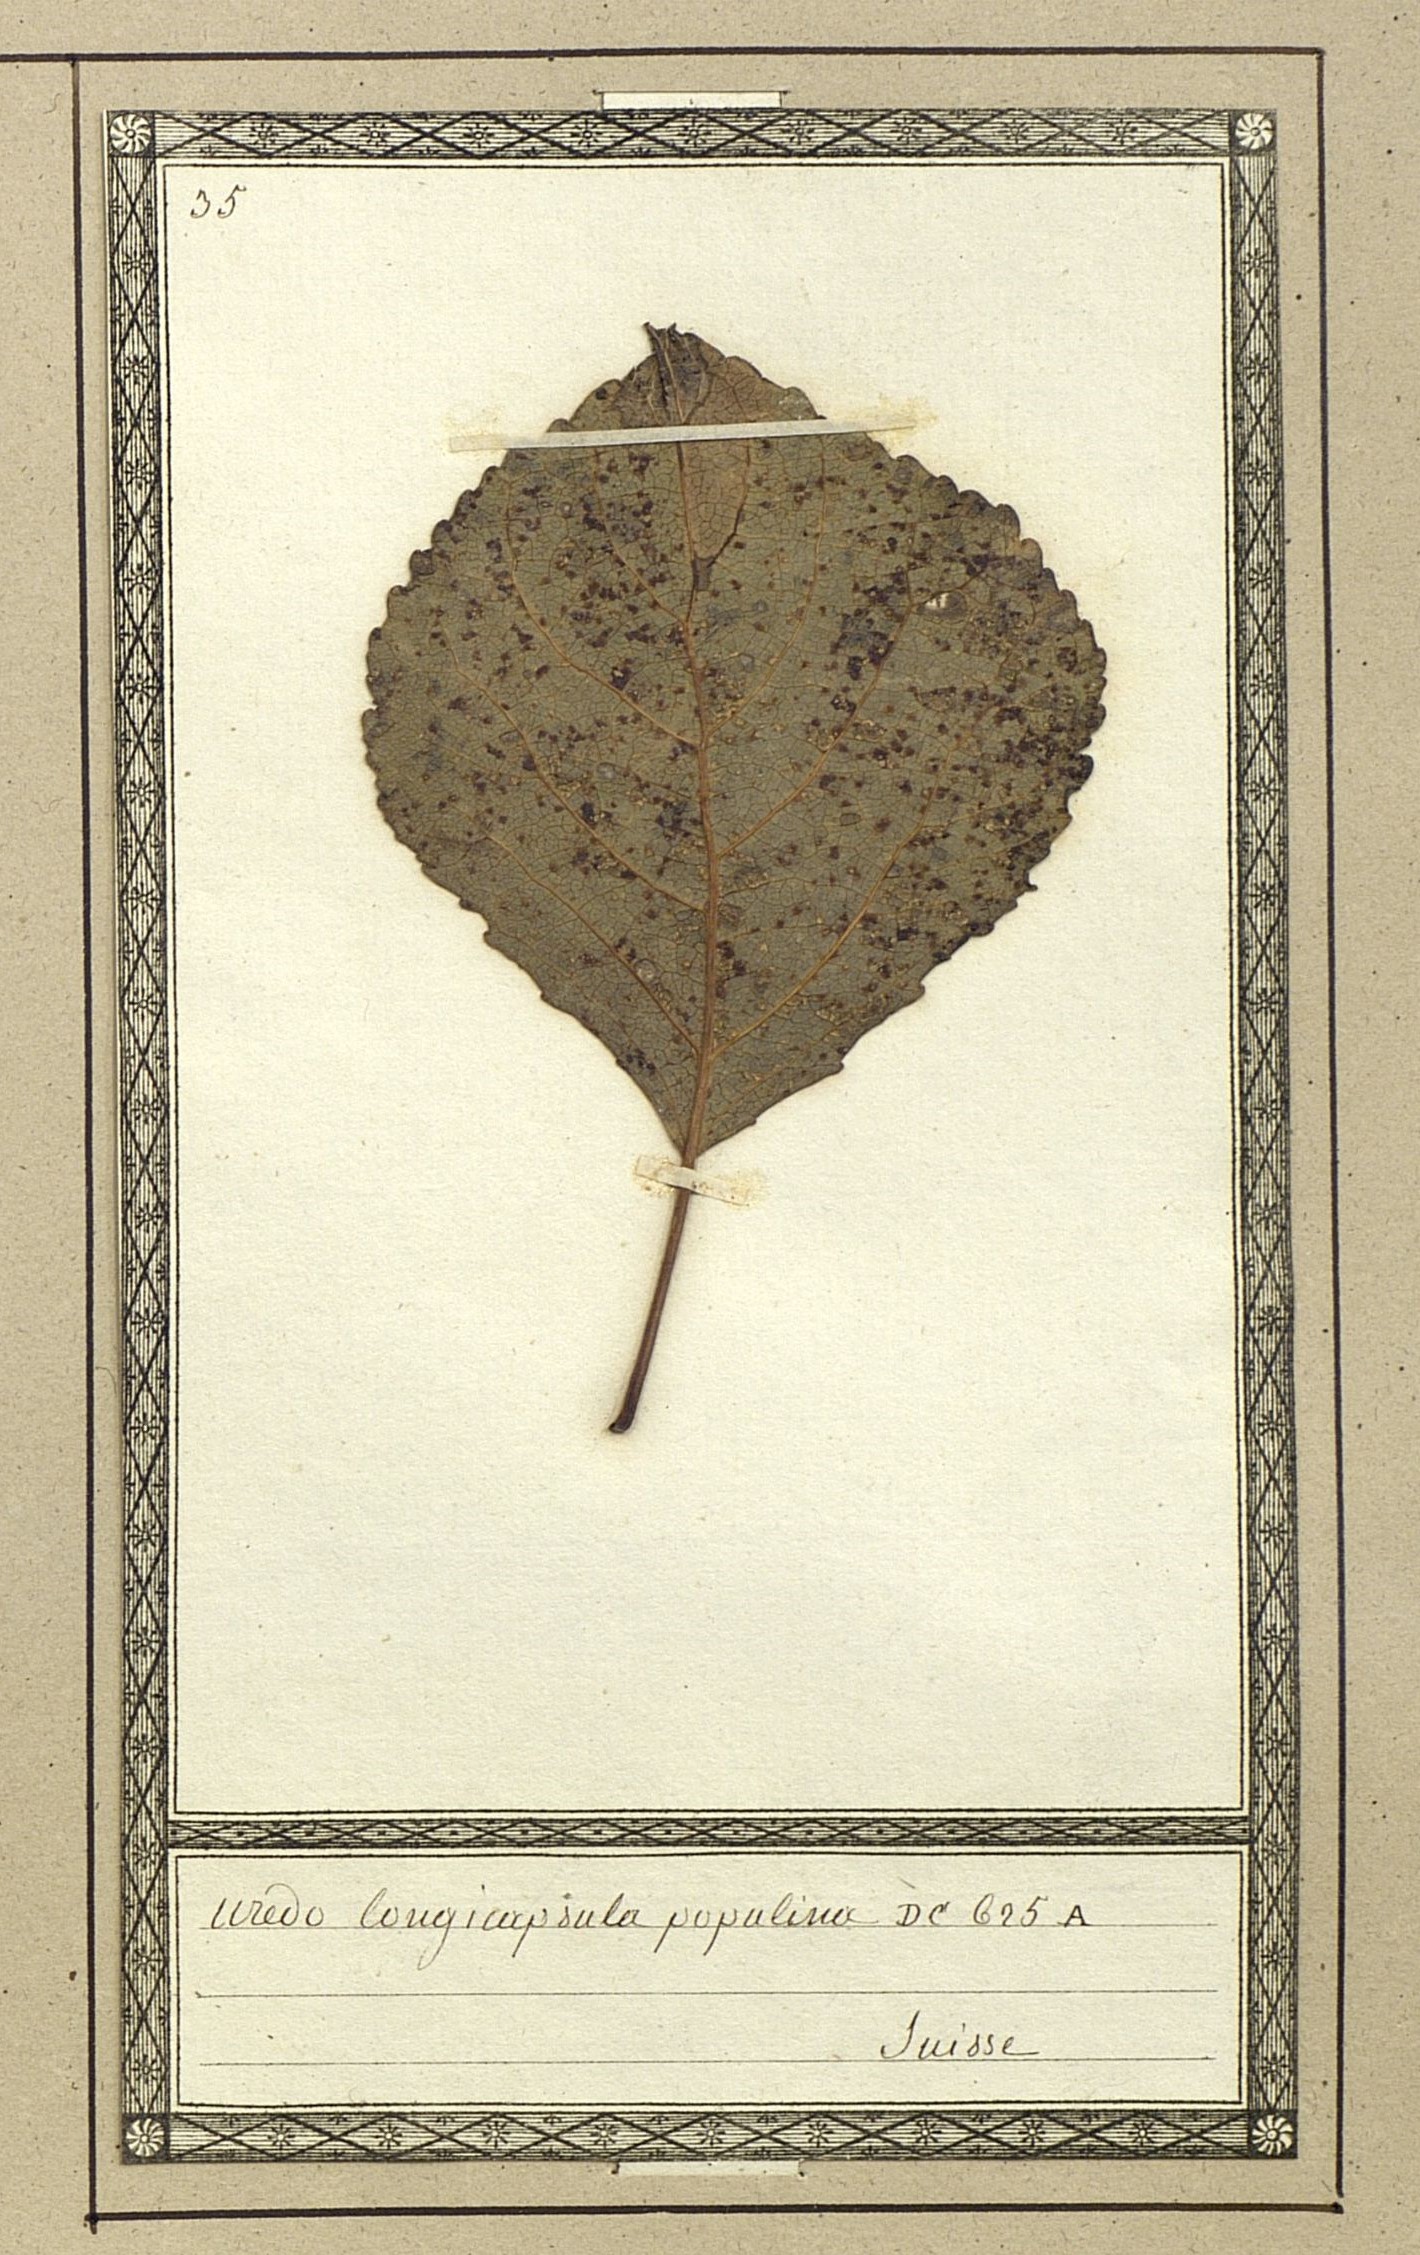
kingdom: Fungi
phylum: Basidiomycota
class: Pucciniomycetes
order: Pucciniales
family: Pucciniaceae
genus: Uredo
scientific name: Uredo
